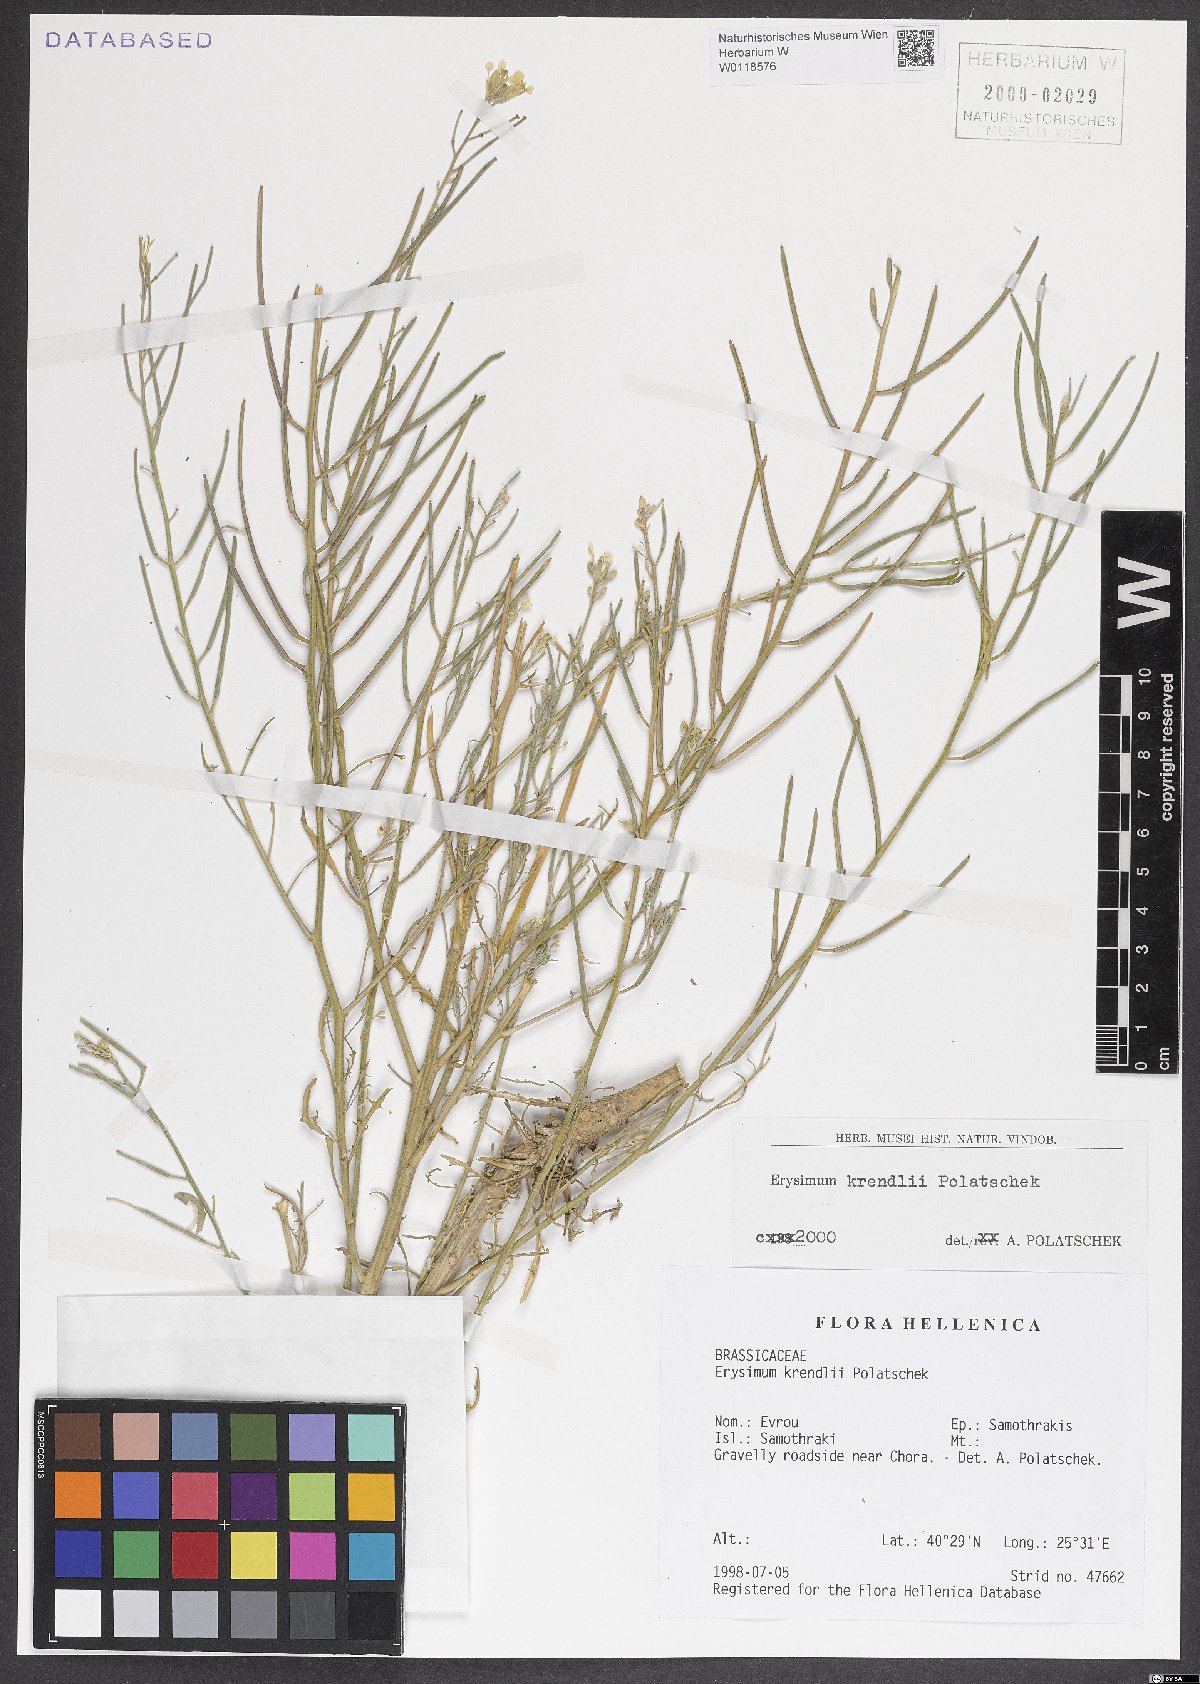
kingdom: Plantae
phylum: Tracheophyta
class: Magnoliopsida
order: Brassicales
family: Brassicaceae
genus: Erysimum
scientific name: Erysimum krendlii
